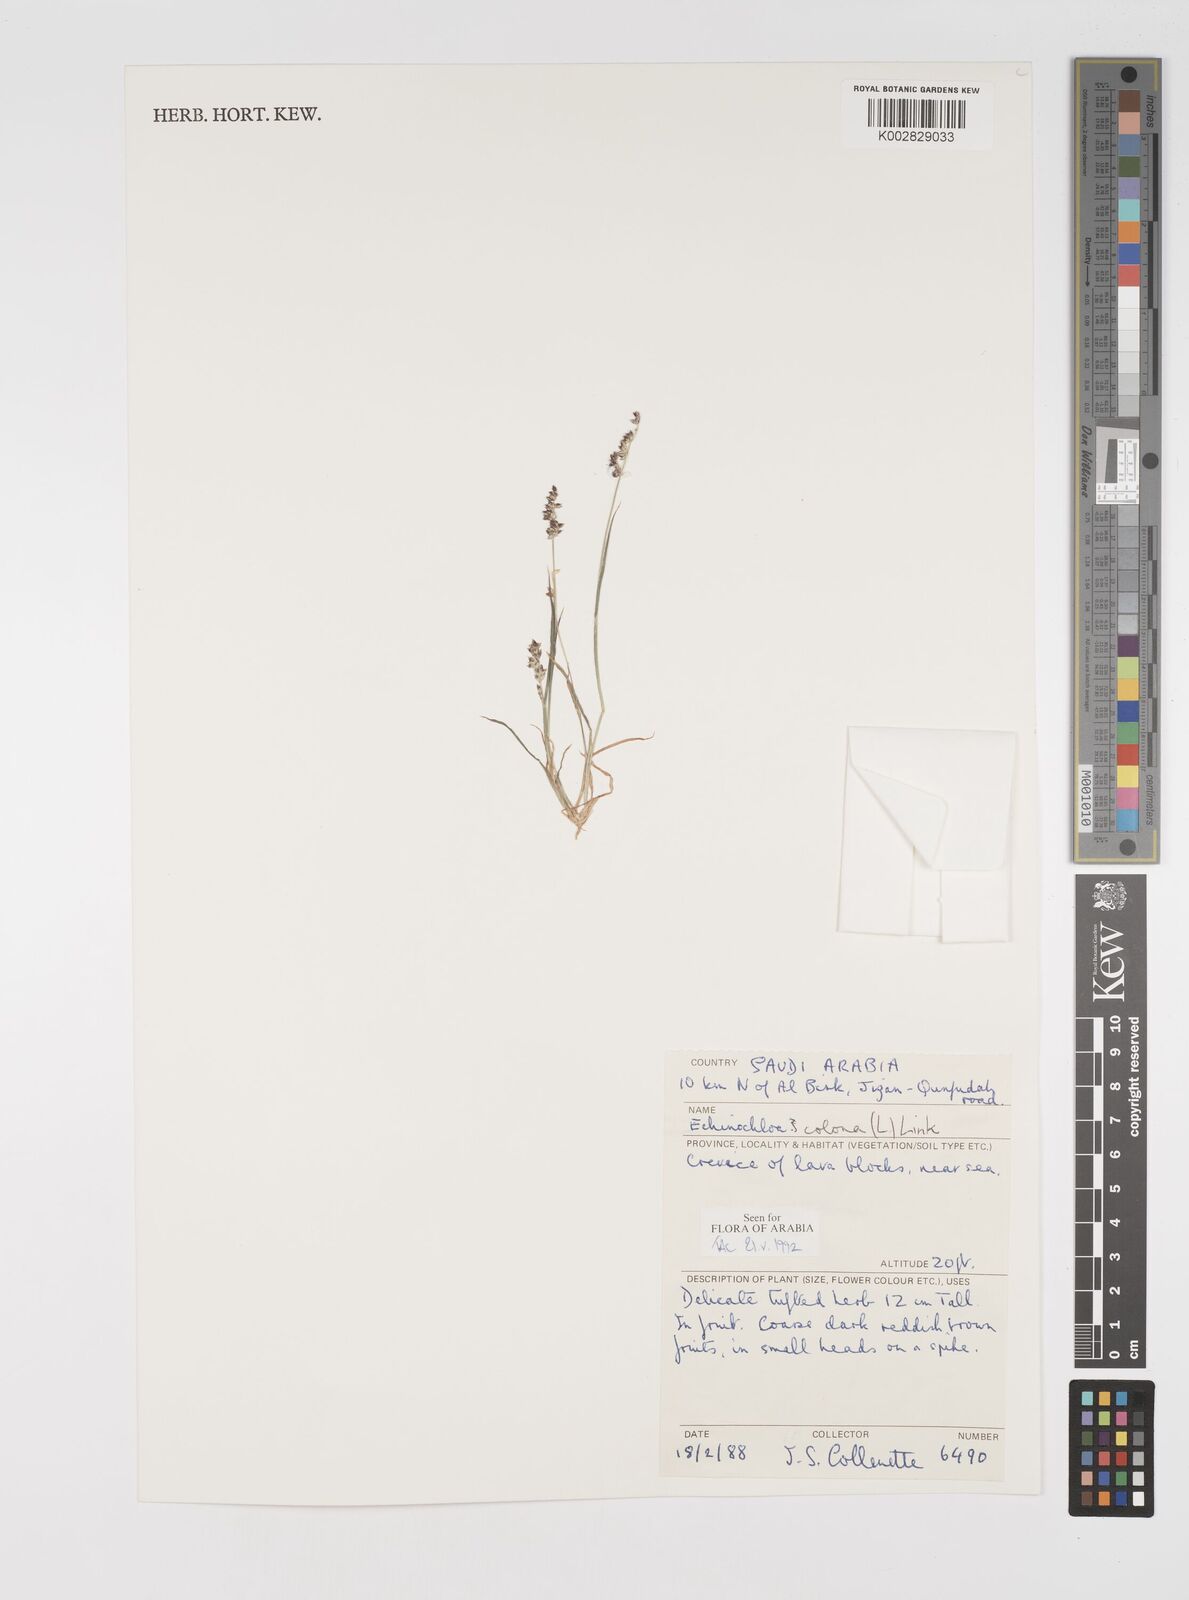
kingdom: Plantae
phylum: Tracheophyta
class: Liliopsida
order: Poales
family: Poaceae
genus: Echinochloa
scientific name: Echinochloa colonum
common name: Jungle rice
